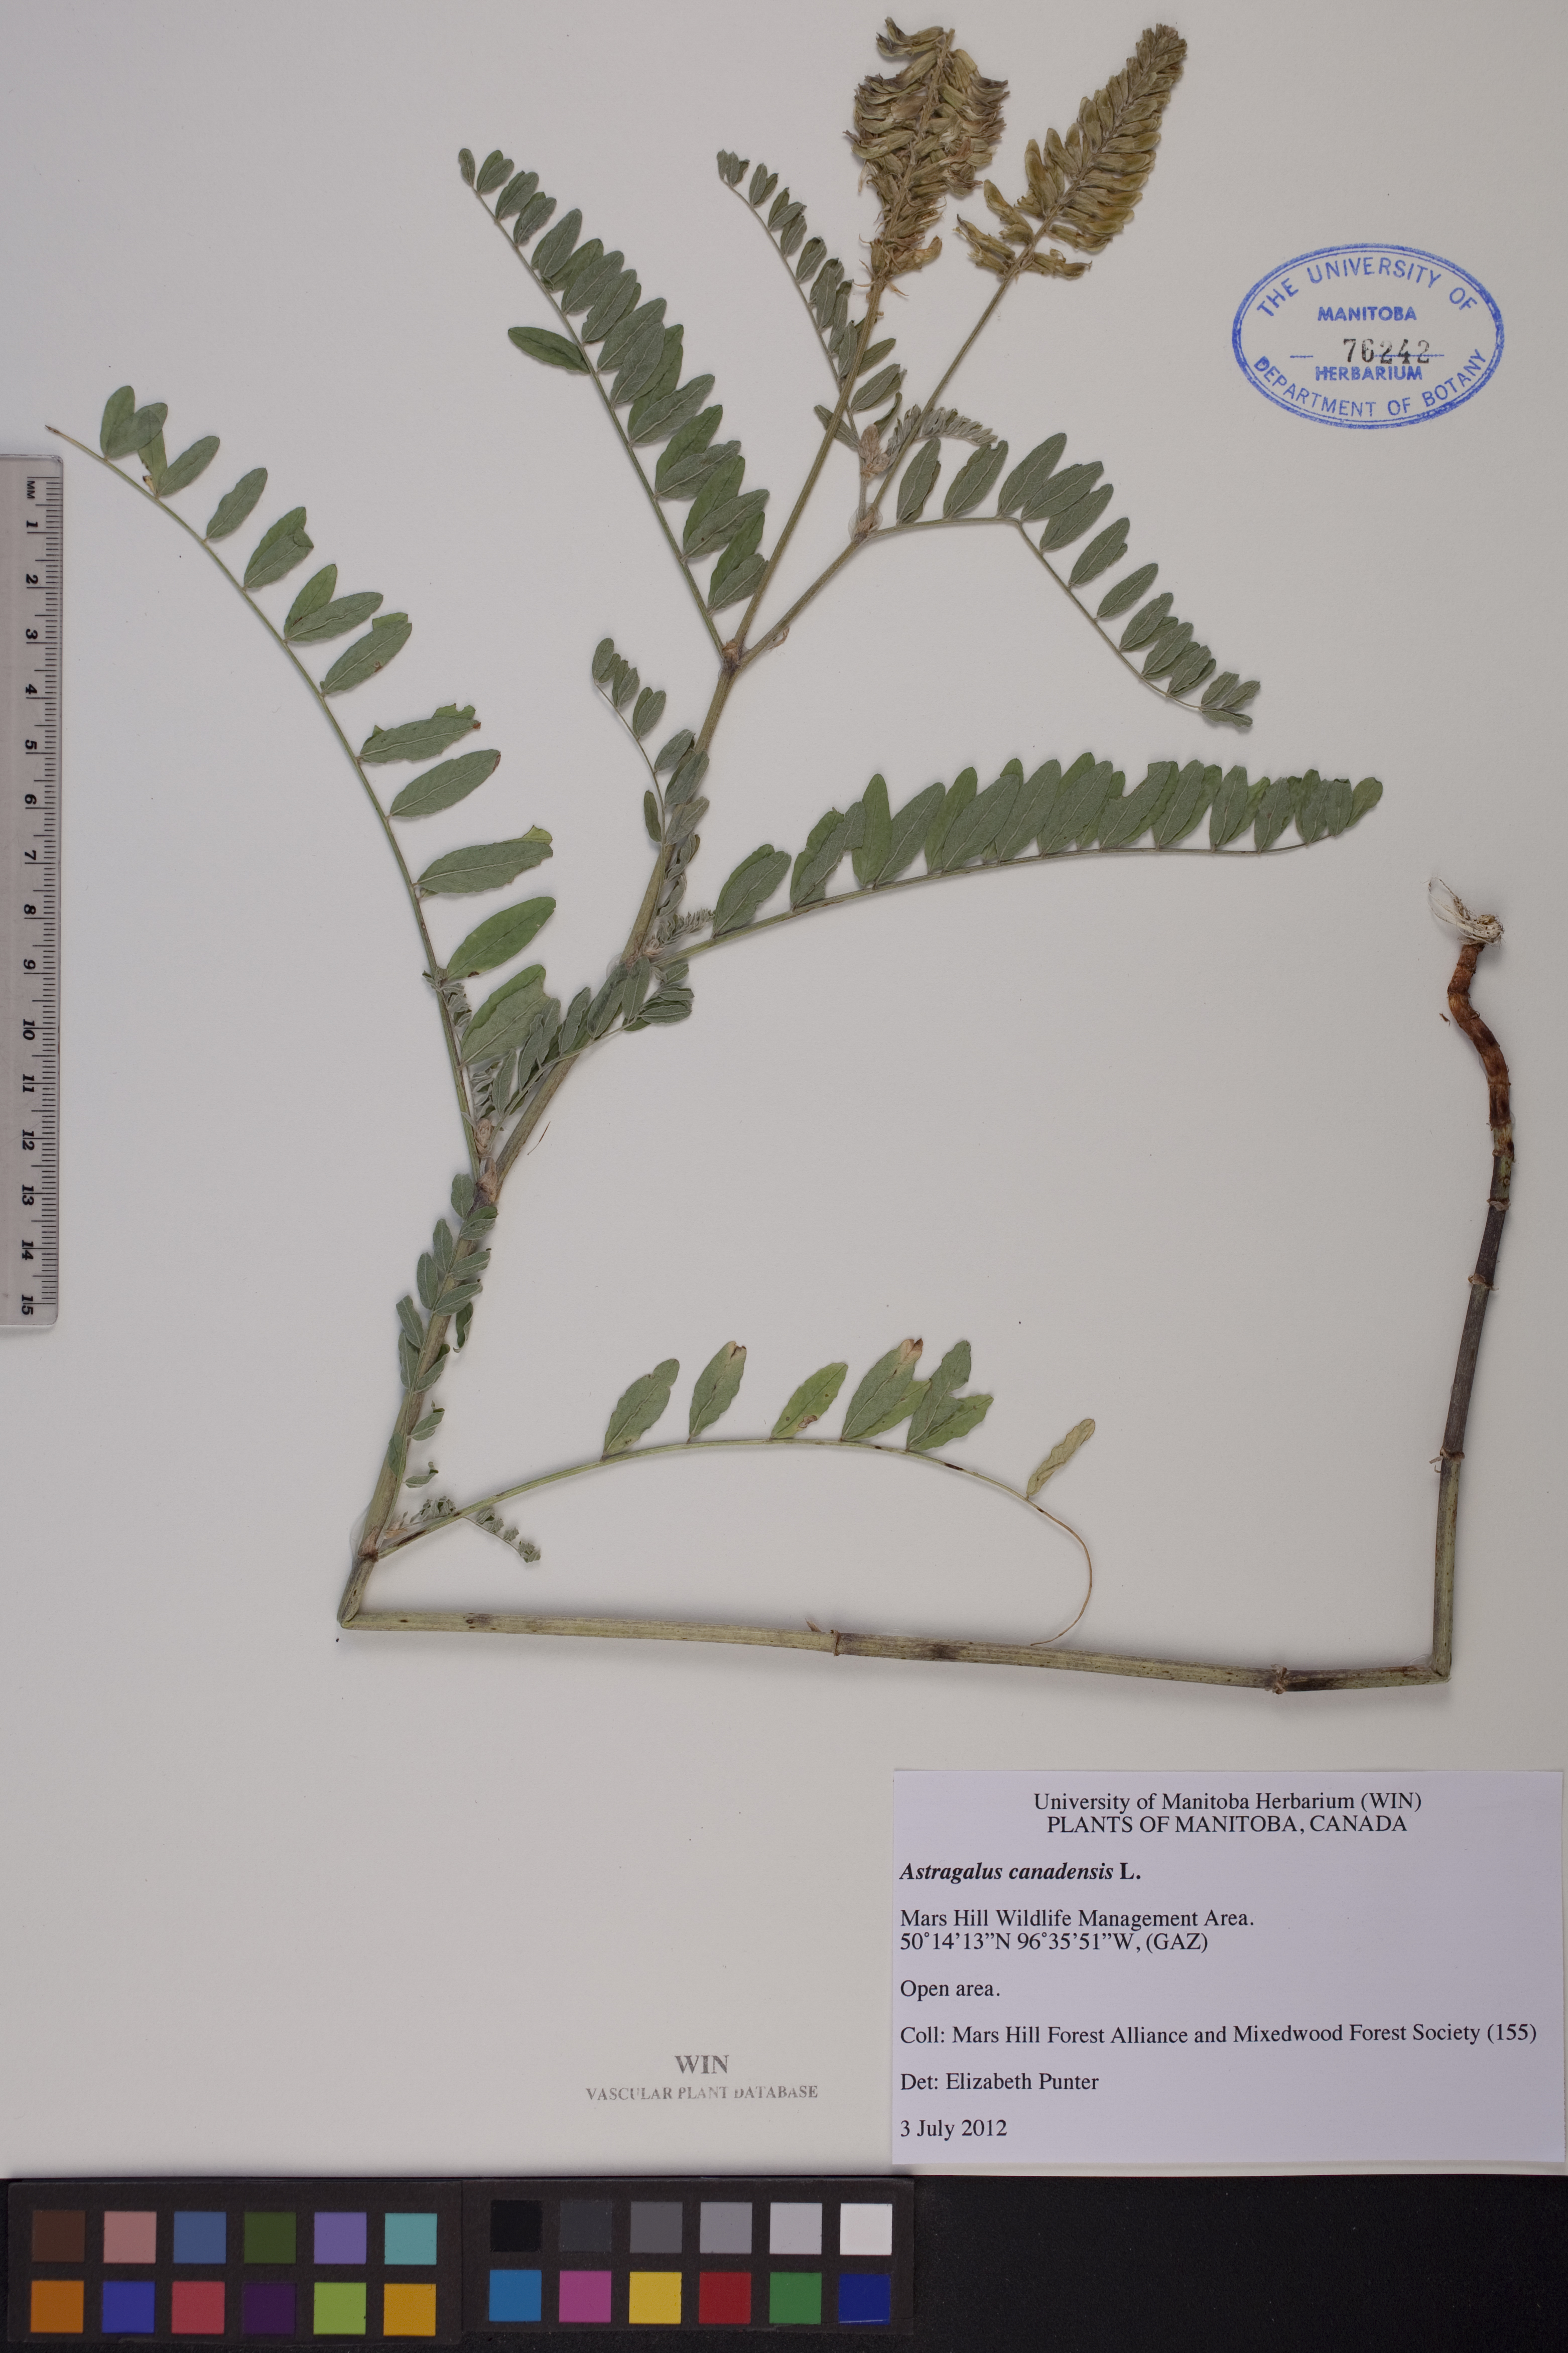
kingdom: Plantae
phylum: Tracheophyta
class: Magnoliopsida
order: Fabales
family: Fabaceae
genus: Astragalus
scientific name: Astragalus canadensis
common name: Canada milk-vetch
